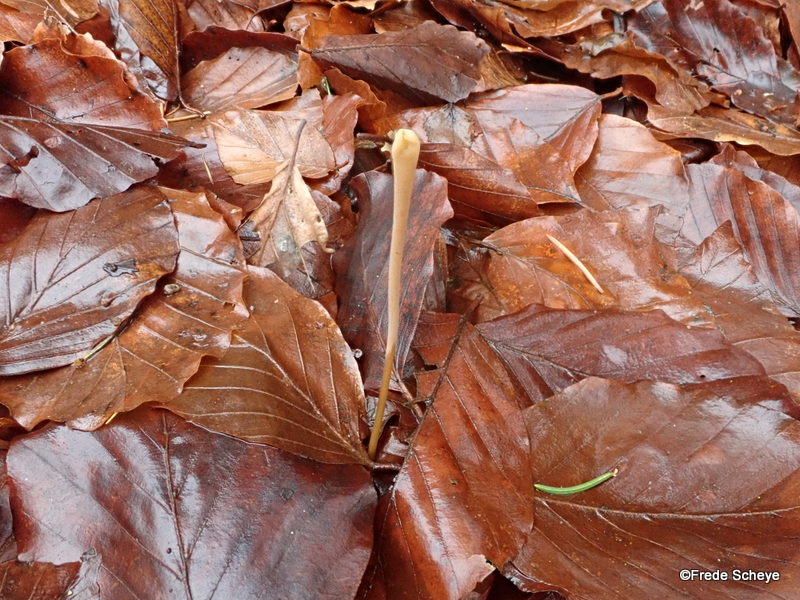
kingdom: Fungi
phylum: Basidiomycota
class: Agaricomycetes
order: Agaricales
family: Typhulaceae
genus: Typhula
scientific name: Typhula fistulosa
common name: pibet rørkølle
